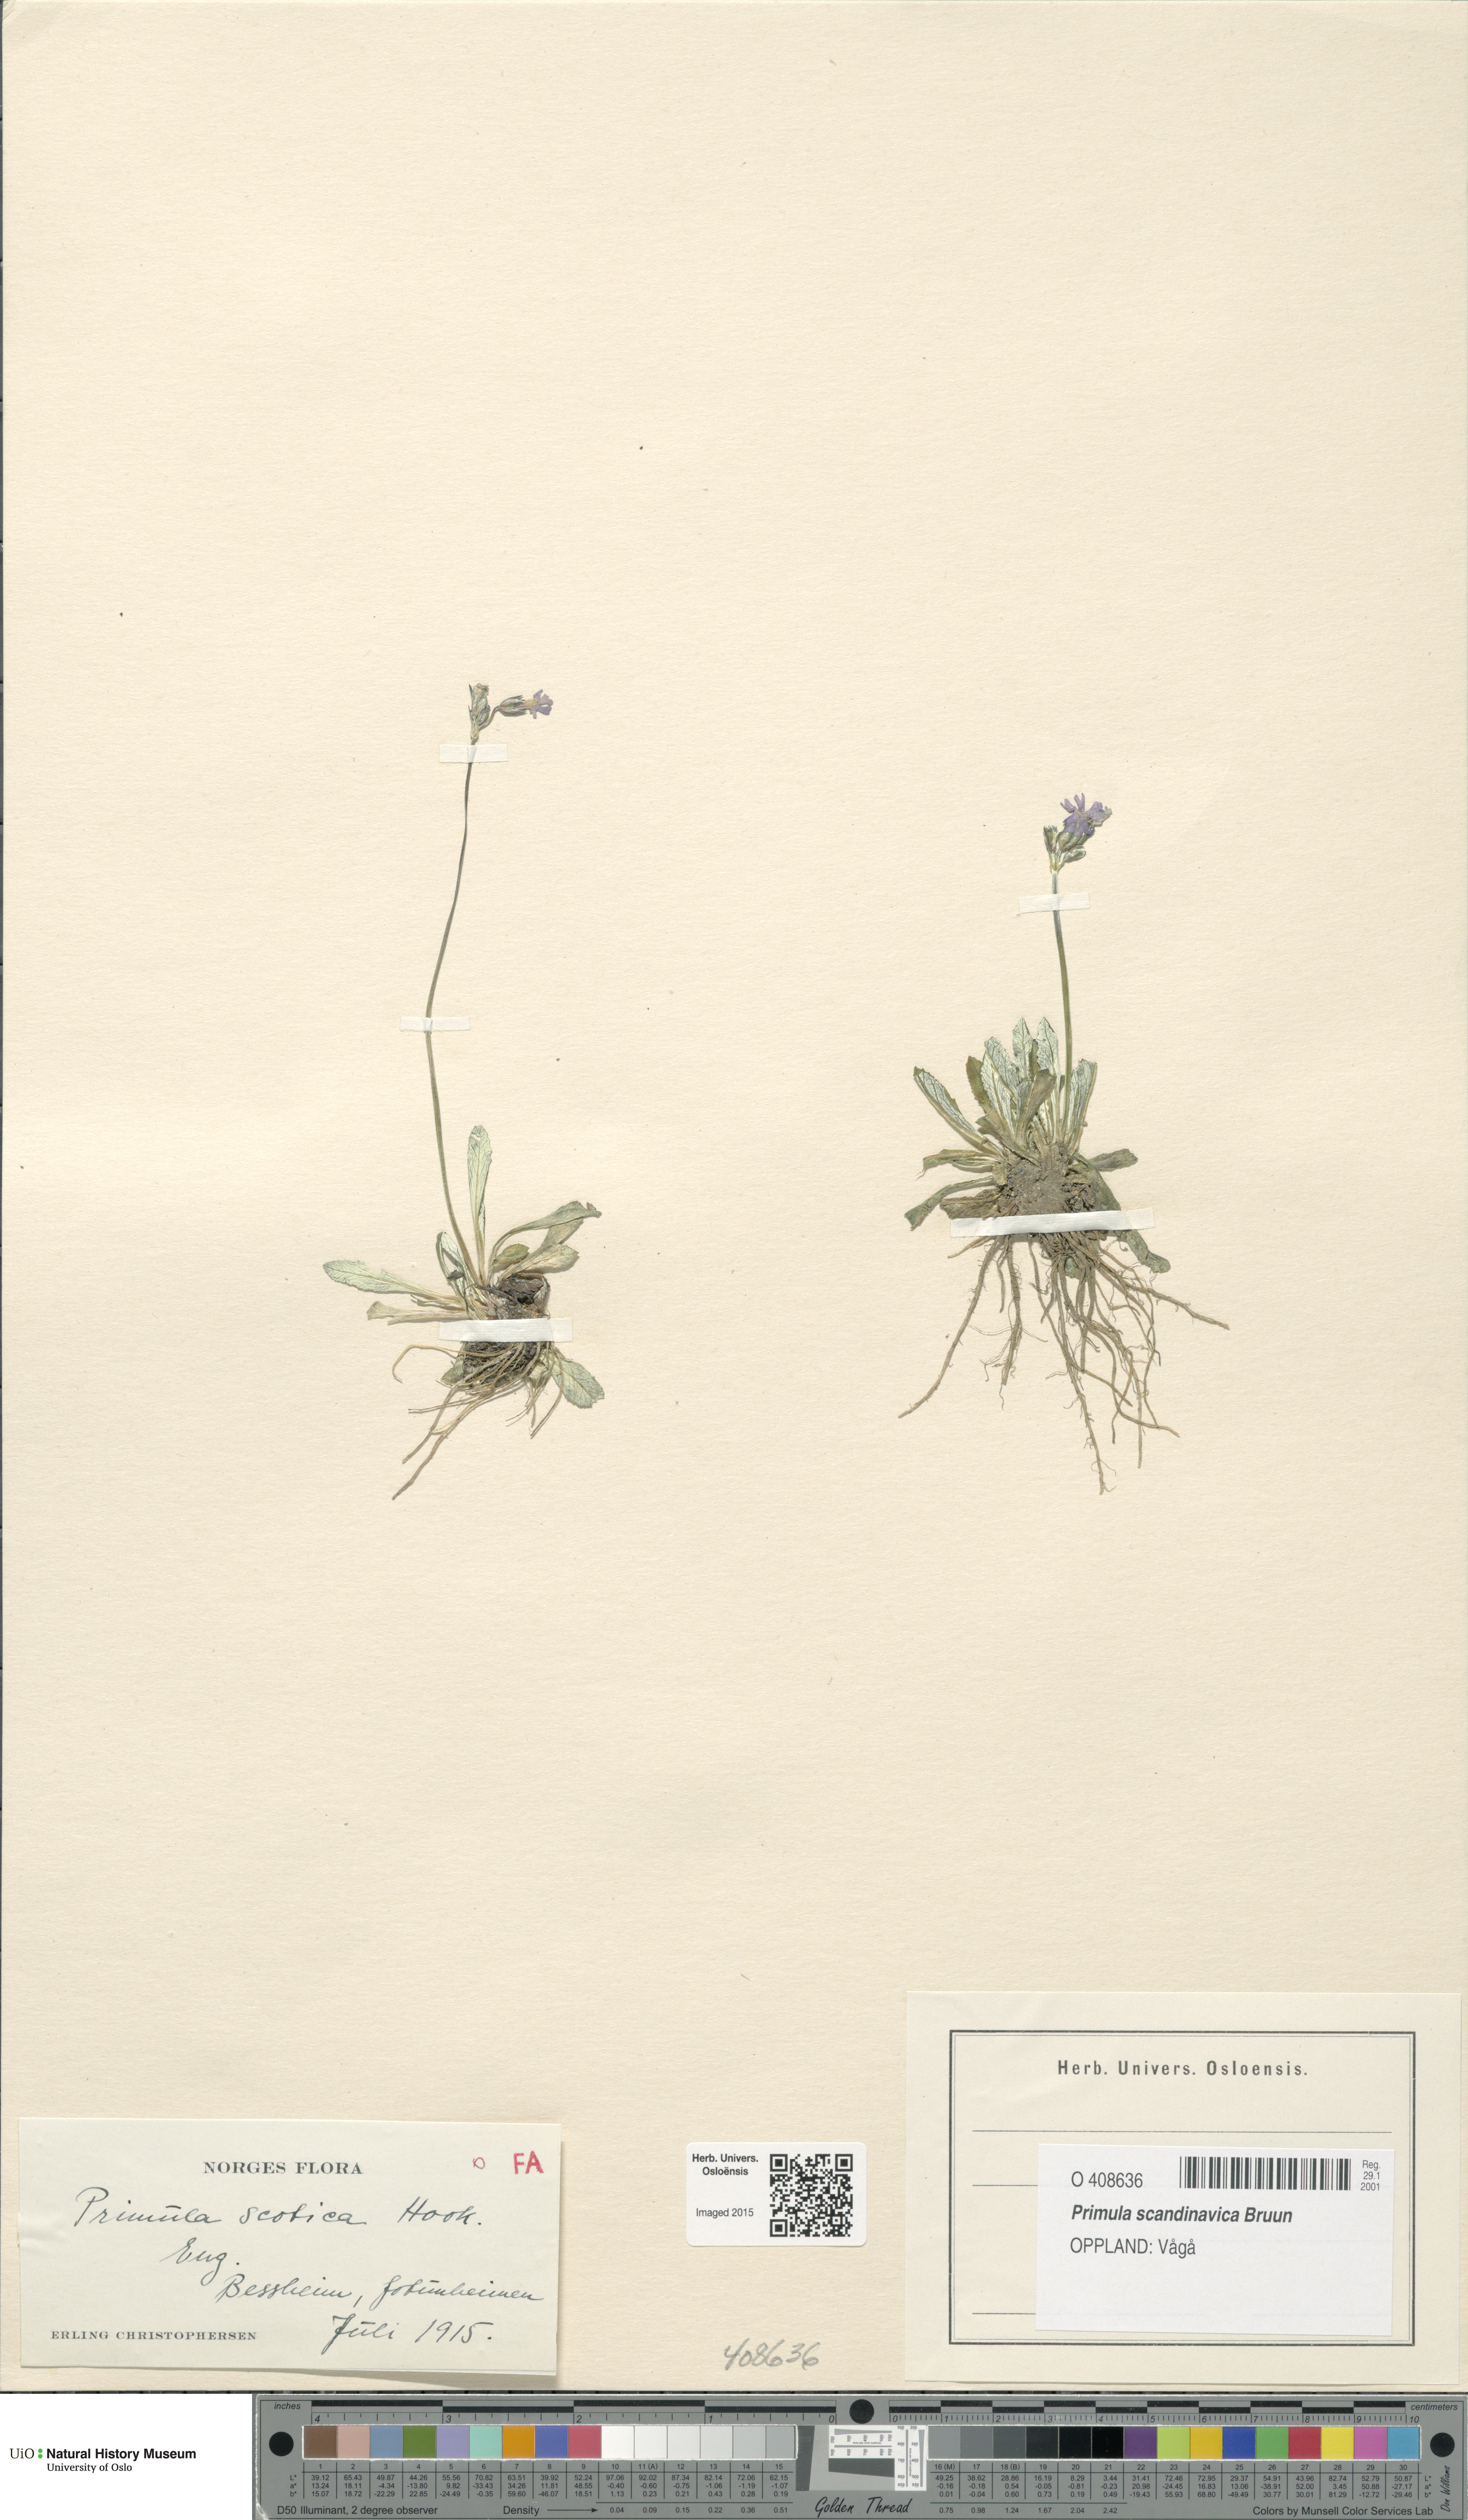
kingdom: Plantae
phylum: Tracheophyta
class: Magnoliopsida
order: Ericales
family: Primulaceae
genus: Primula
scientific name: Primula scandinavica
